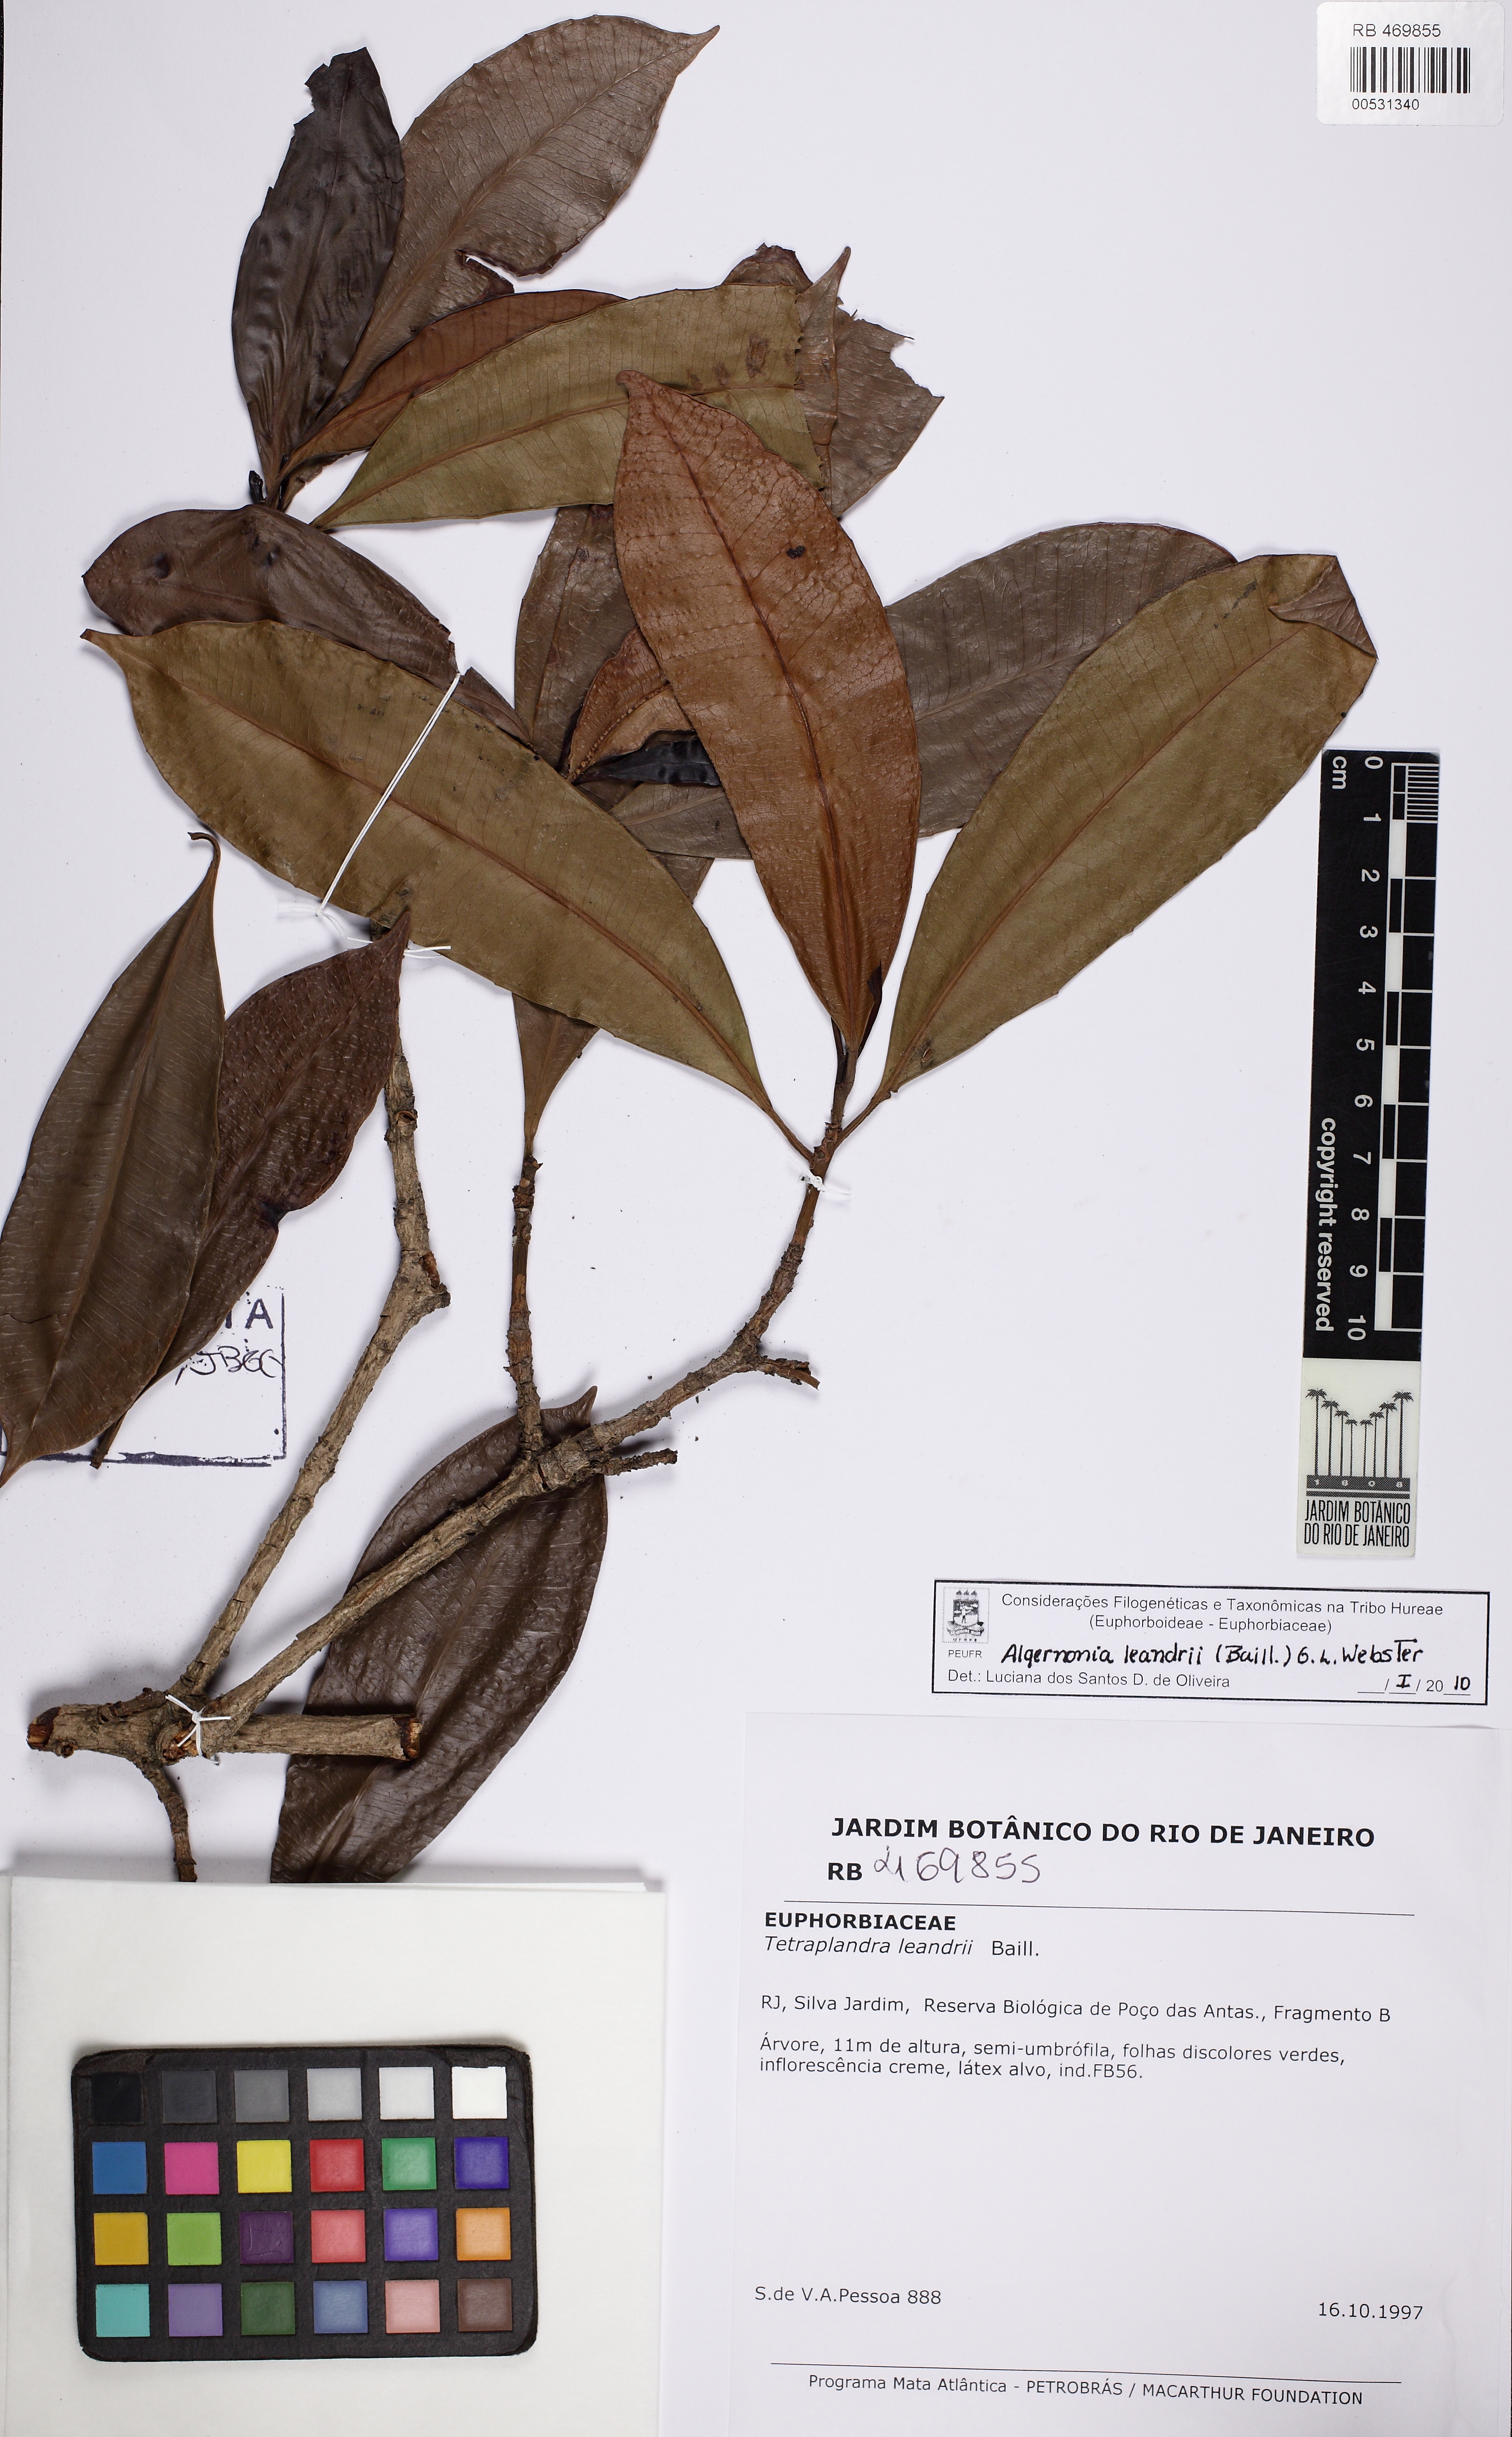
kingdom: Plantae
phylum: Tracheophyta
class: Magnoliopsida
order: Malpighiales
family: Euphorbiaceae
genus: Algernonia
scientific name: Algernonia leandrii
